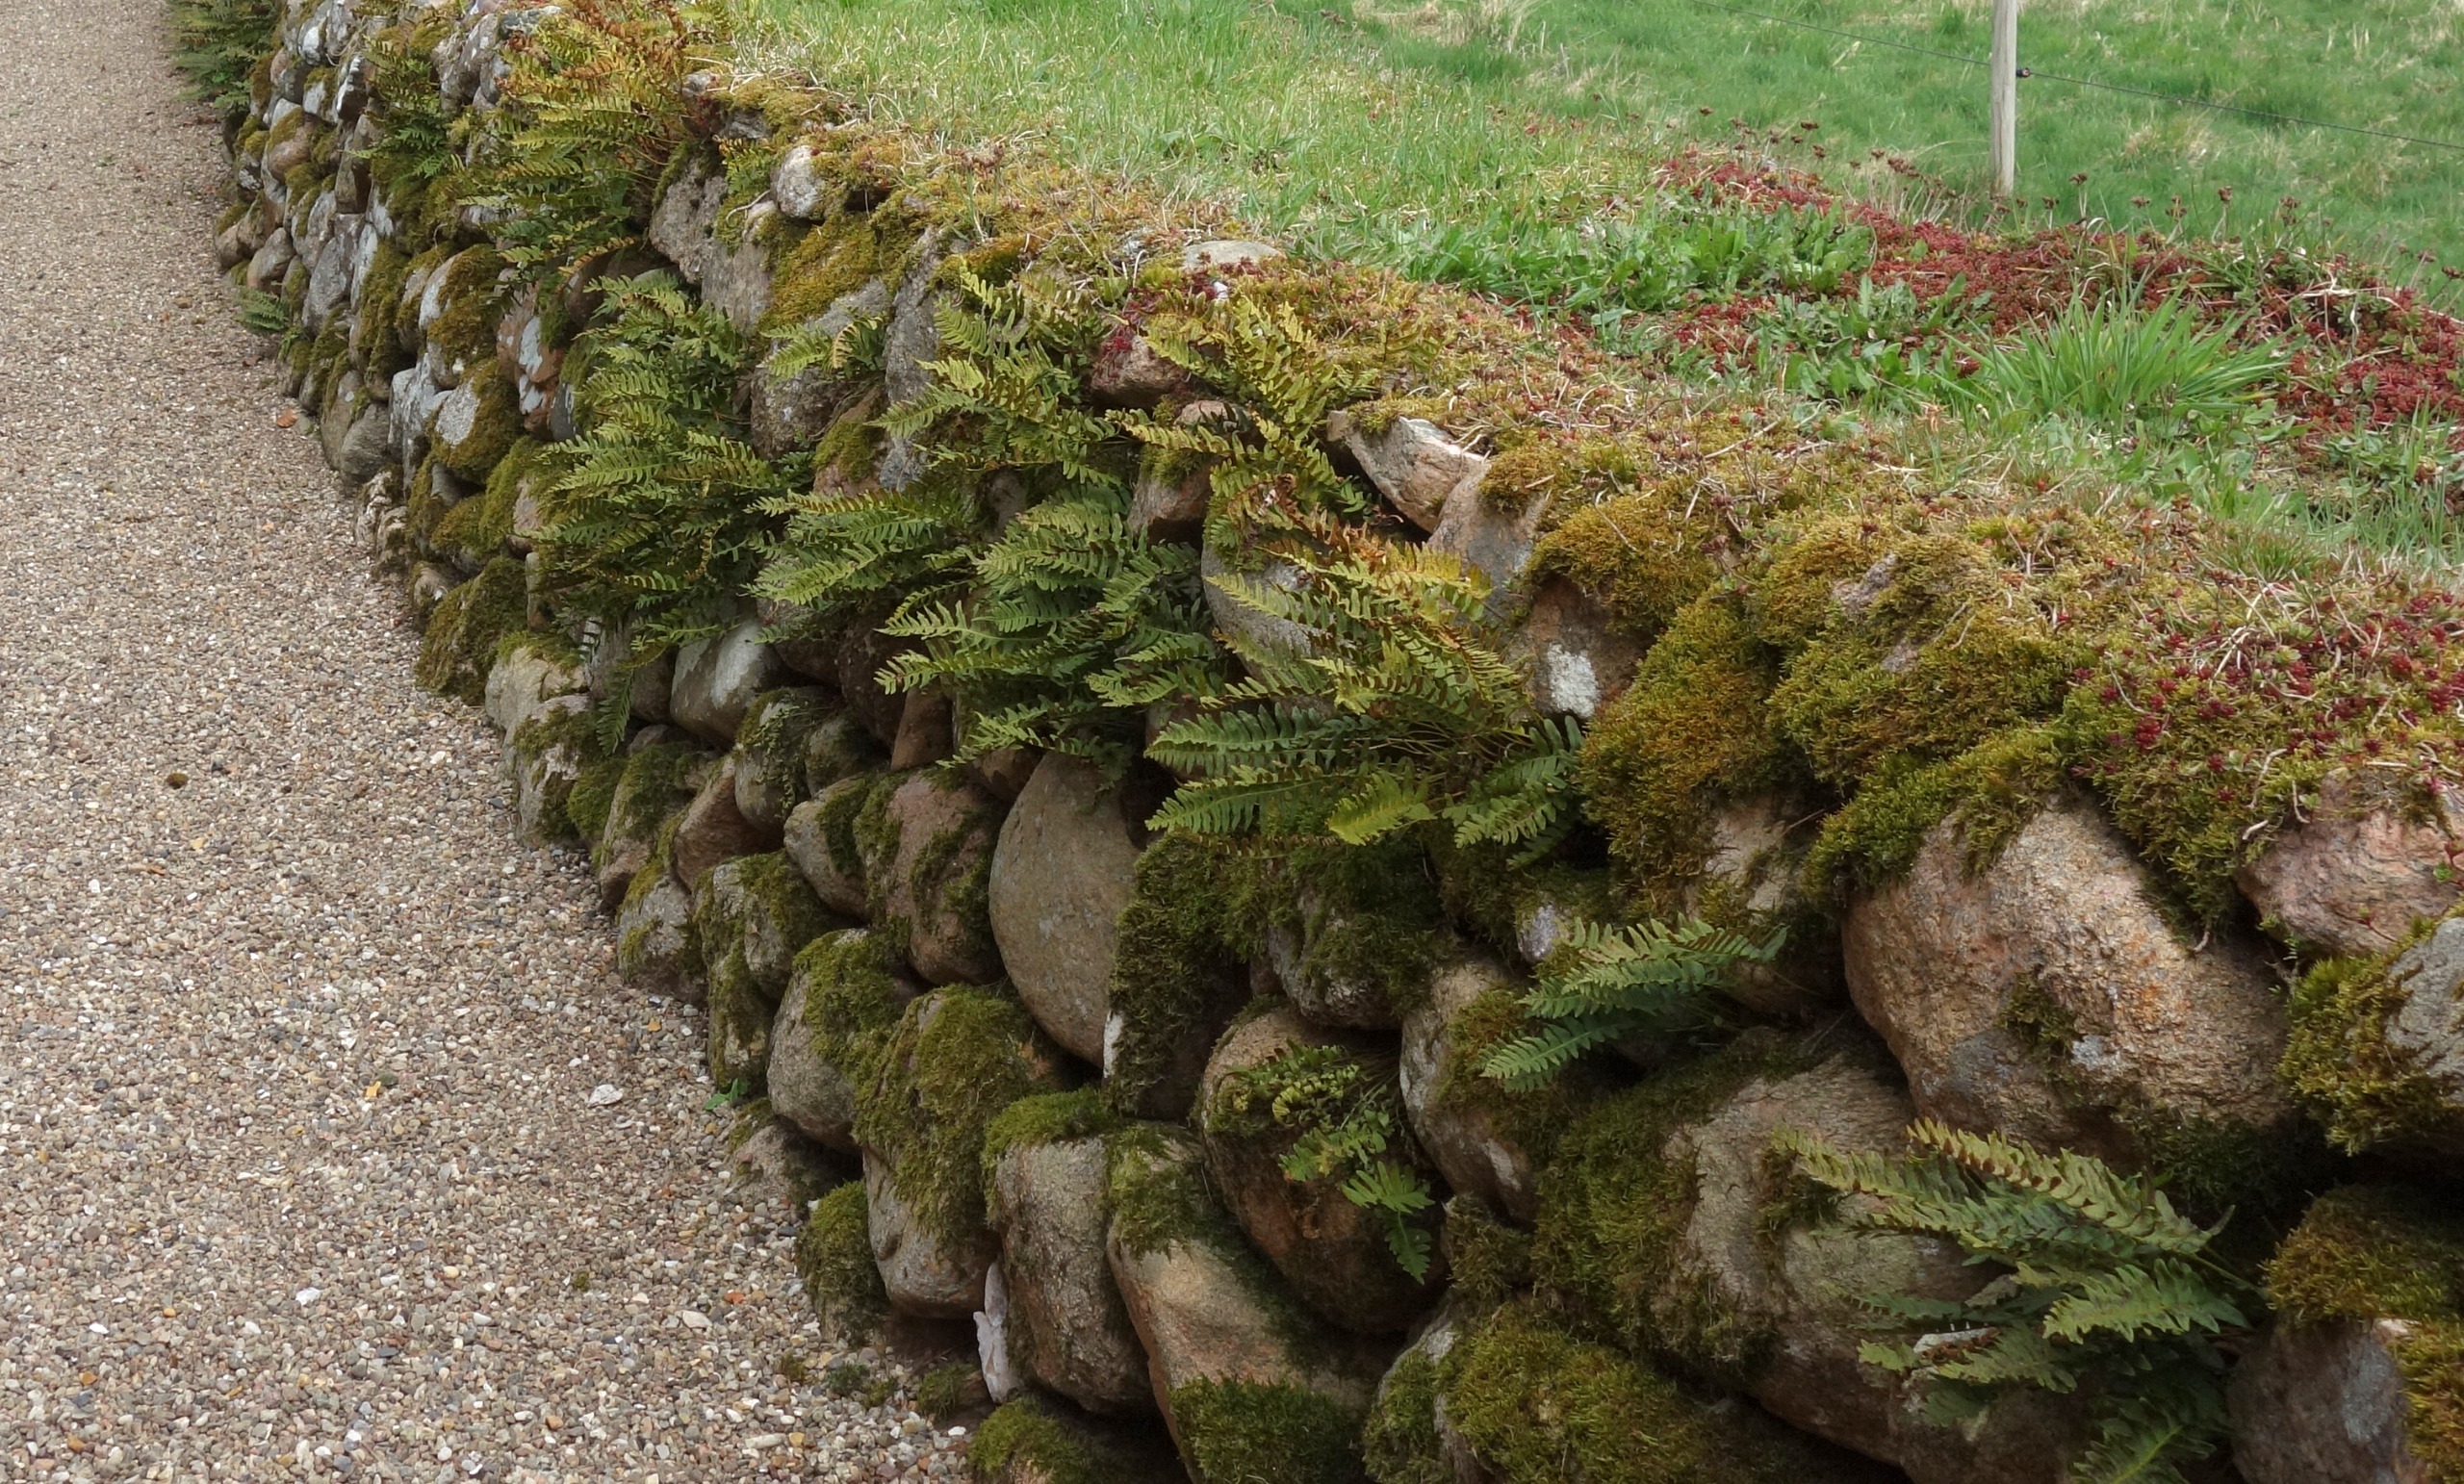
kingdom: Plantae
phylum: Tracheophyta
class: Polypodiopsida
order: Polypodiales
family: Polypodiaceae
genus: Polypodium
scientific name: Polypodium vulgare
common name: Almindelig engelsød
